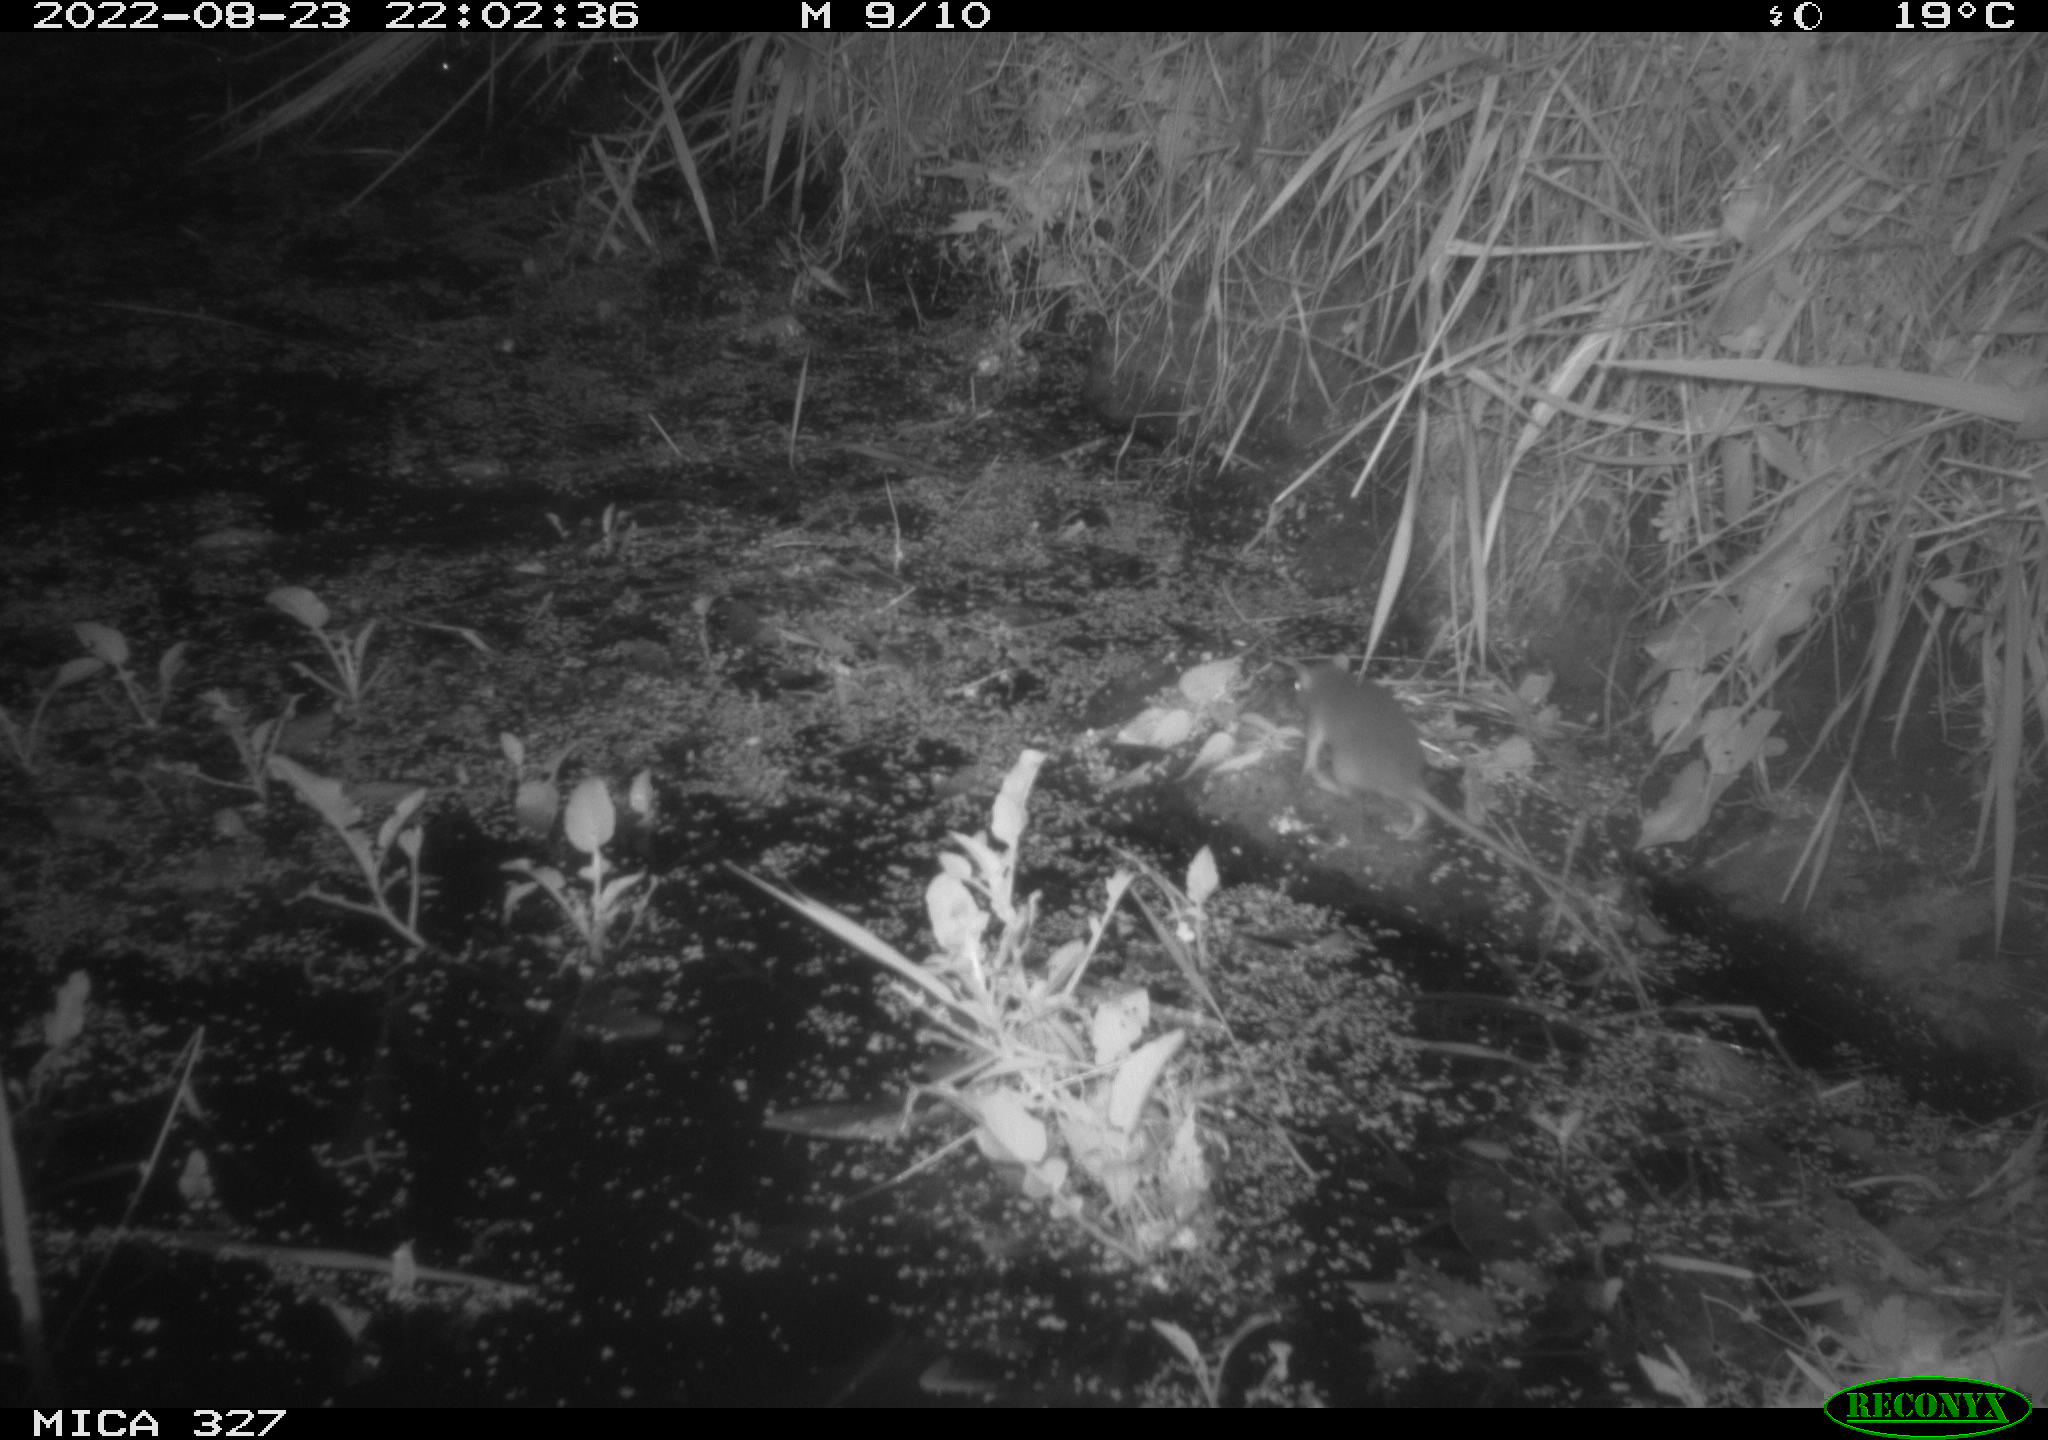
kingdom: Animalia
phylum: Chordata
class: Mammalia
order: Rodentia
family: Muridae
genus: Rattus
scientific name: Rattus norvegicus
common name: Brown rat
